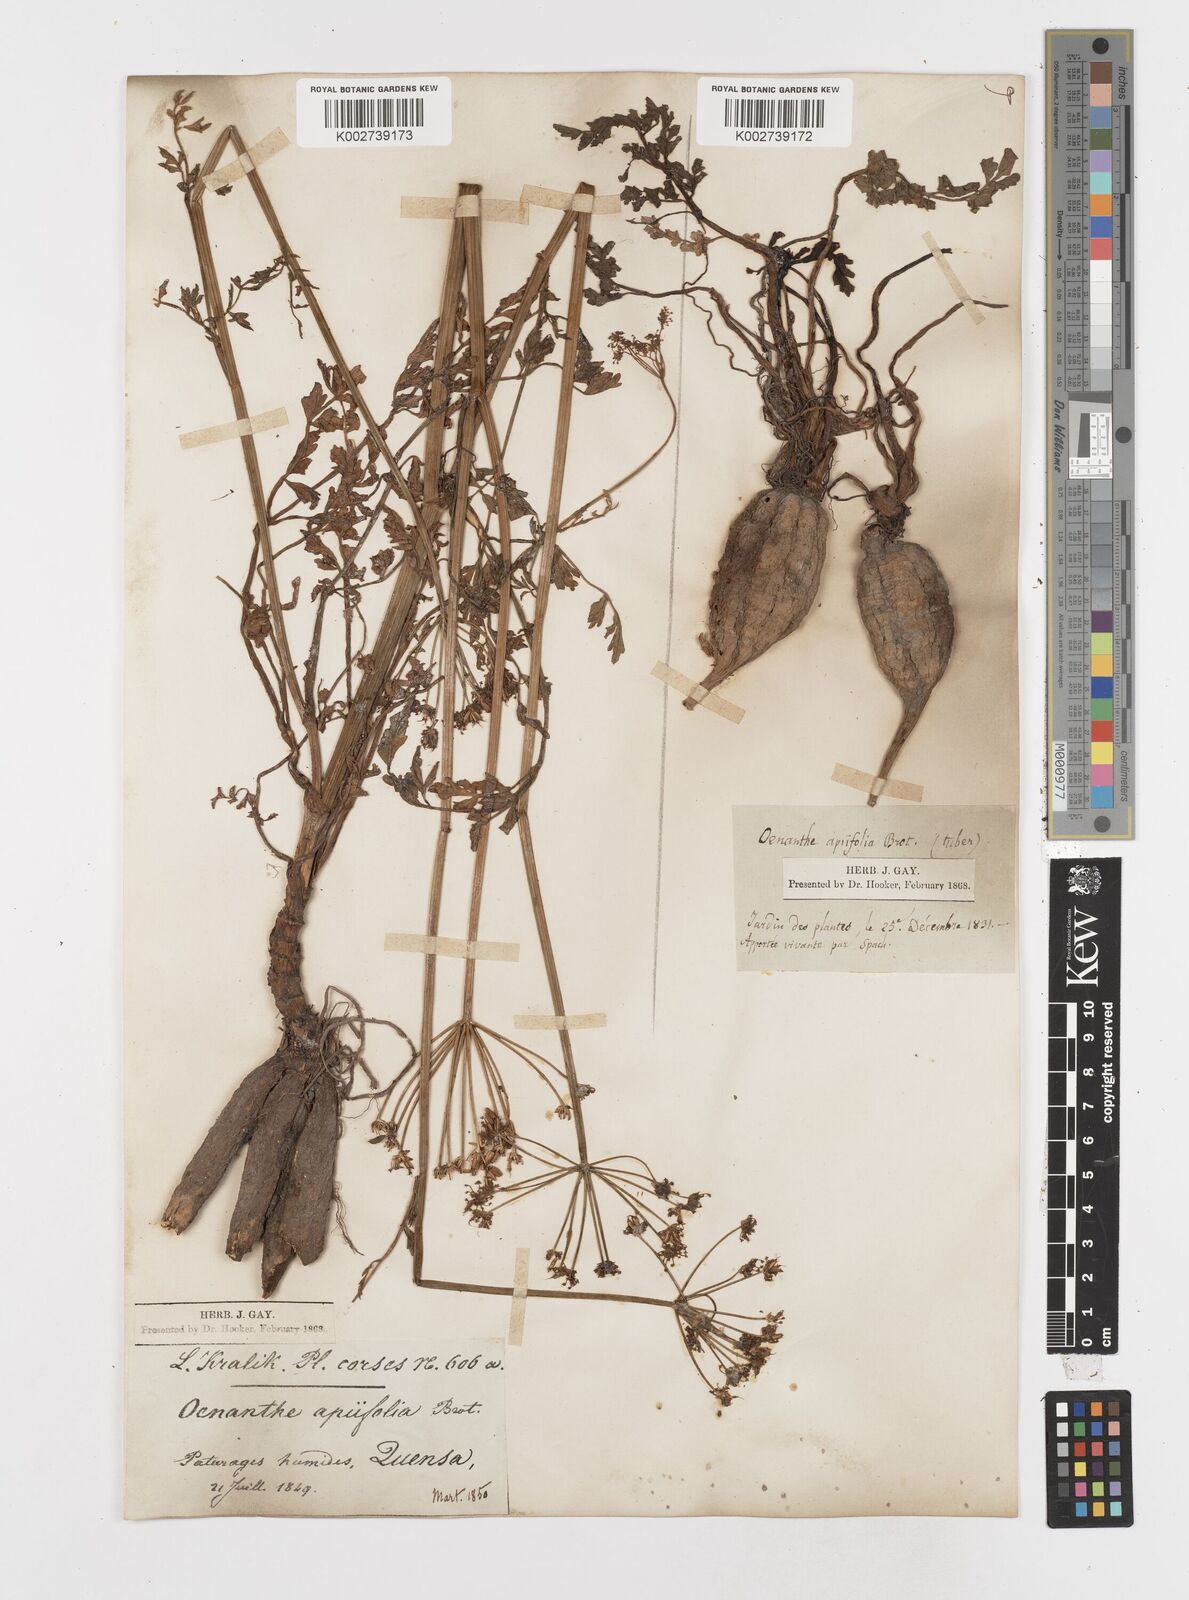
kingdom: Plantae
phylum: Tracheophyta
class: Magnoliopsida
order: Apiales
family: Apiaceae
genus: Oenanthe
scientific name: Oenanthe crocata
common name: Hemlock water-dropwort
